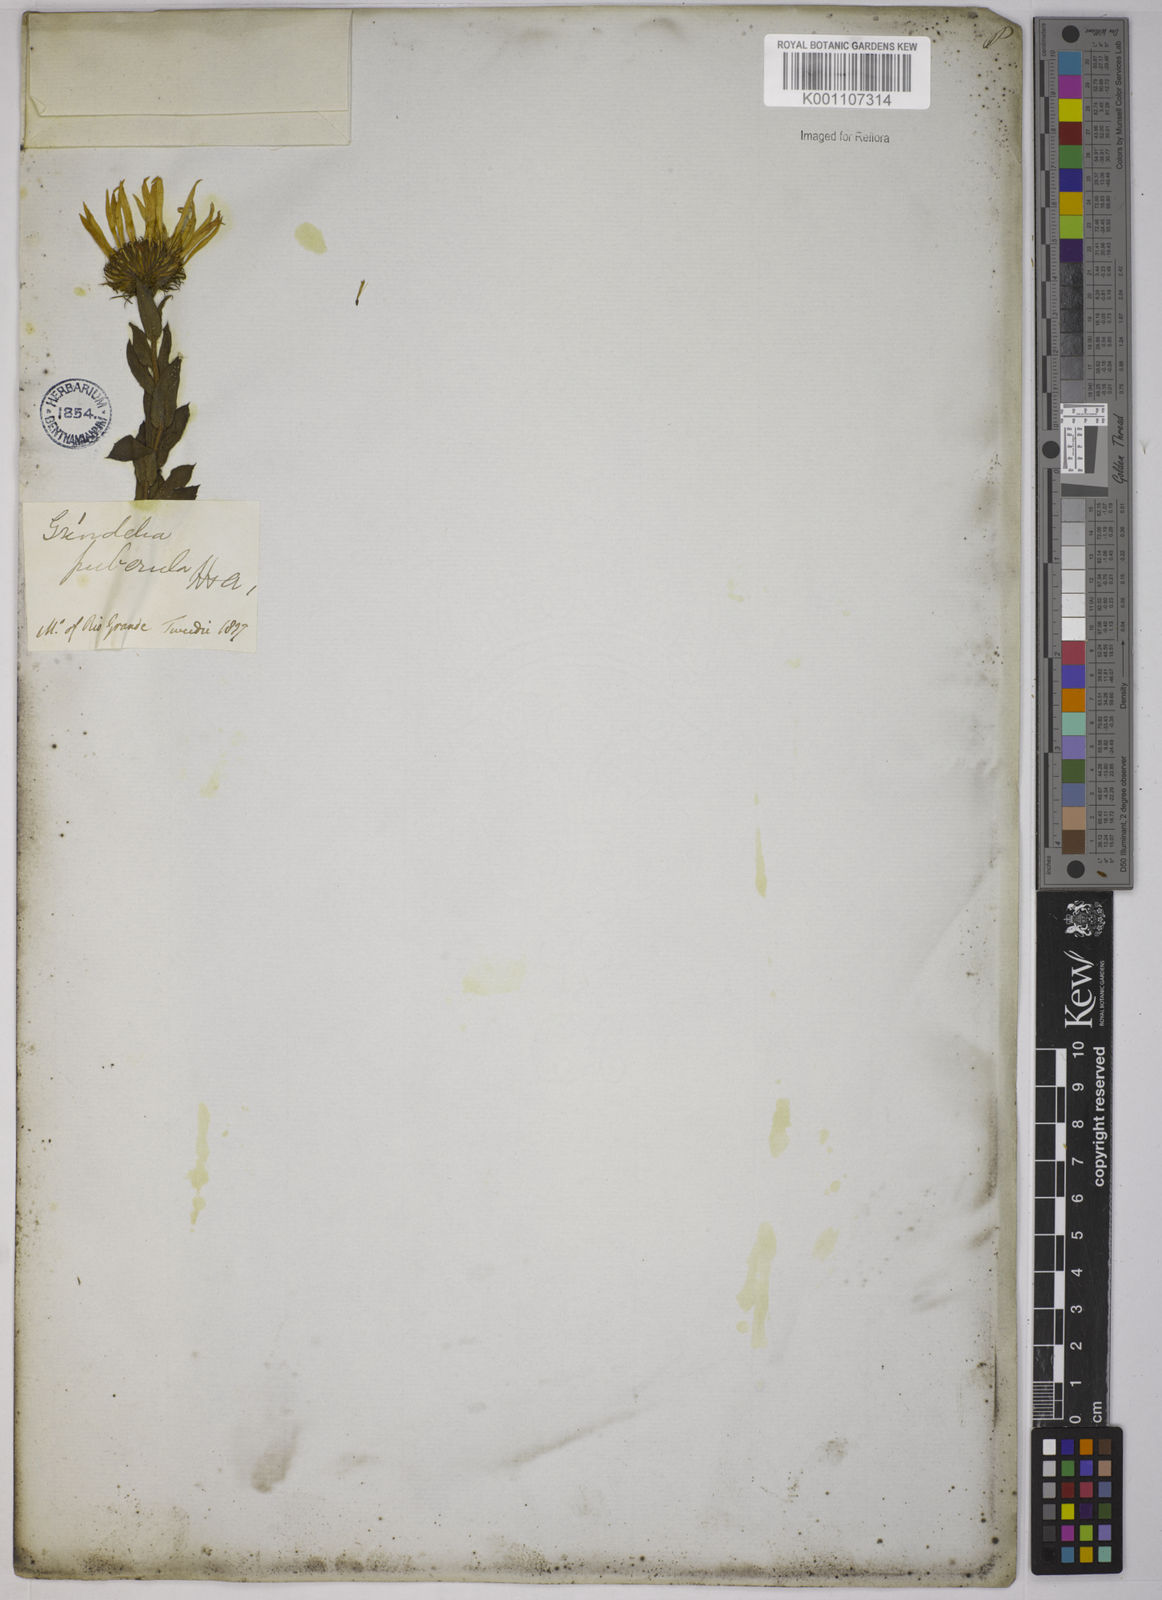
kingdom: Plantae
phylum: Tracheophyta
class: Magnoliopsida
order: Asterales
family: Asteraceae
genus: Grindelia
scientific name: Grindelia
